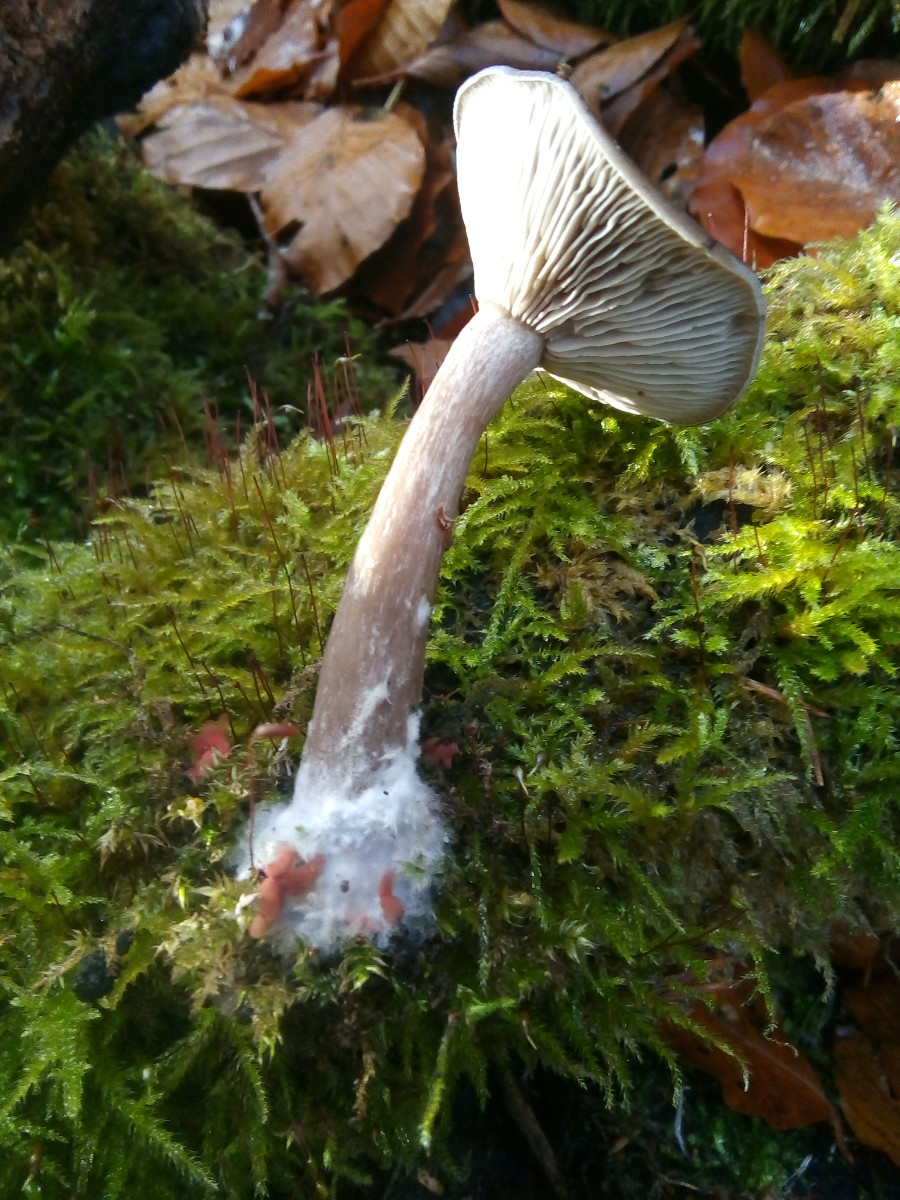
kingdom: Fungi
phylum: Basidiomycota
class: Agaricomycetes
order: Agaricales
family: Pseudoclitocybaceae
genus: Pseudoclitocybe
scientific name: Pseudoclitocybe cyathiformis
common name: almindelig bægertragthat
